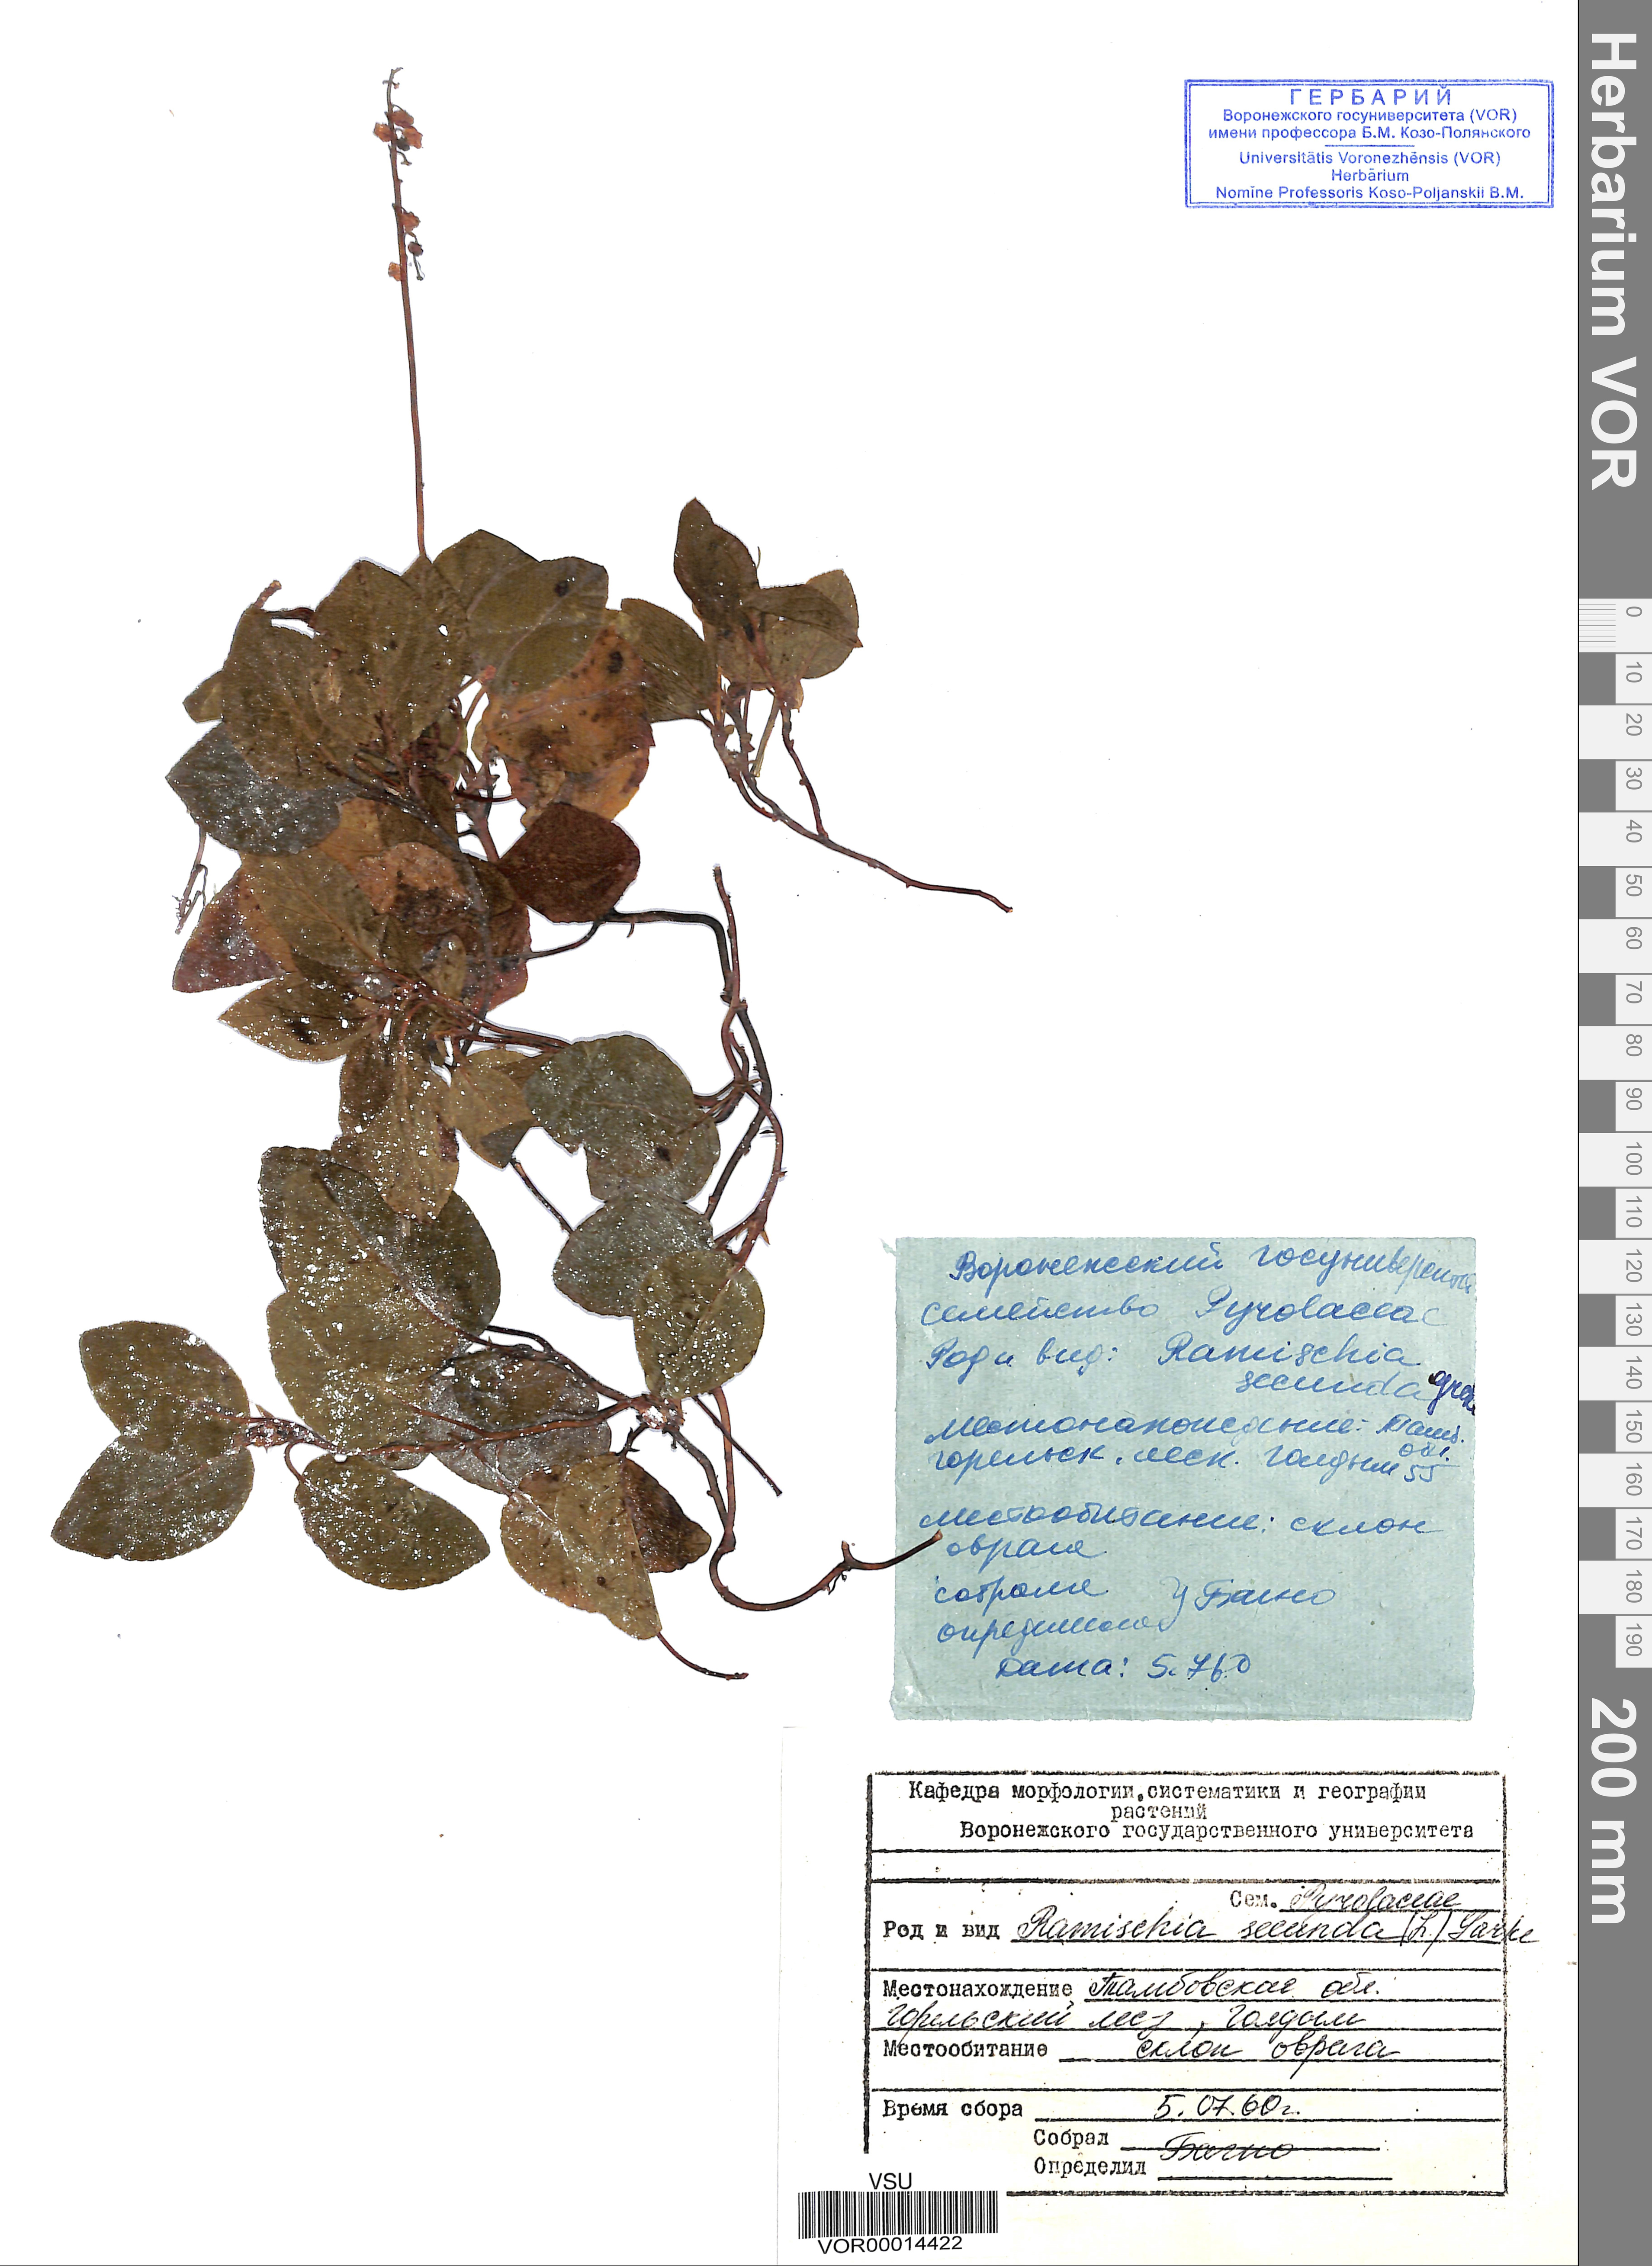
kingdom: Plantae
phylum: Tracheophyta
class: Magnoliopsida
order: Ericales
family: Ericaceae
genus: Orthilia
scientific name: Orthilia secunda
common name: One-sided orthilia
